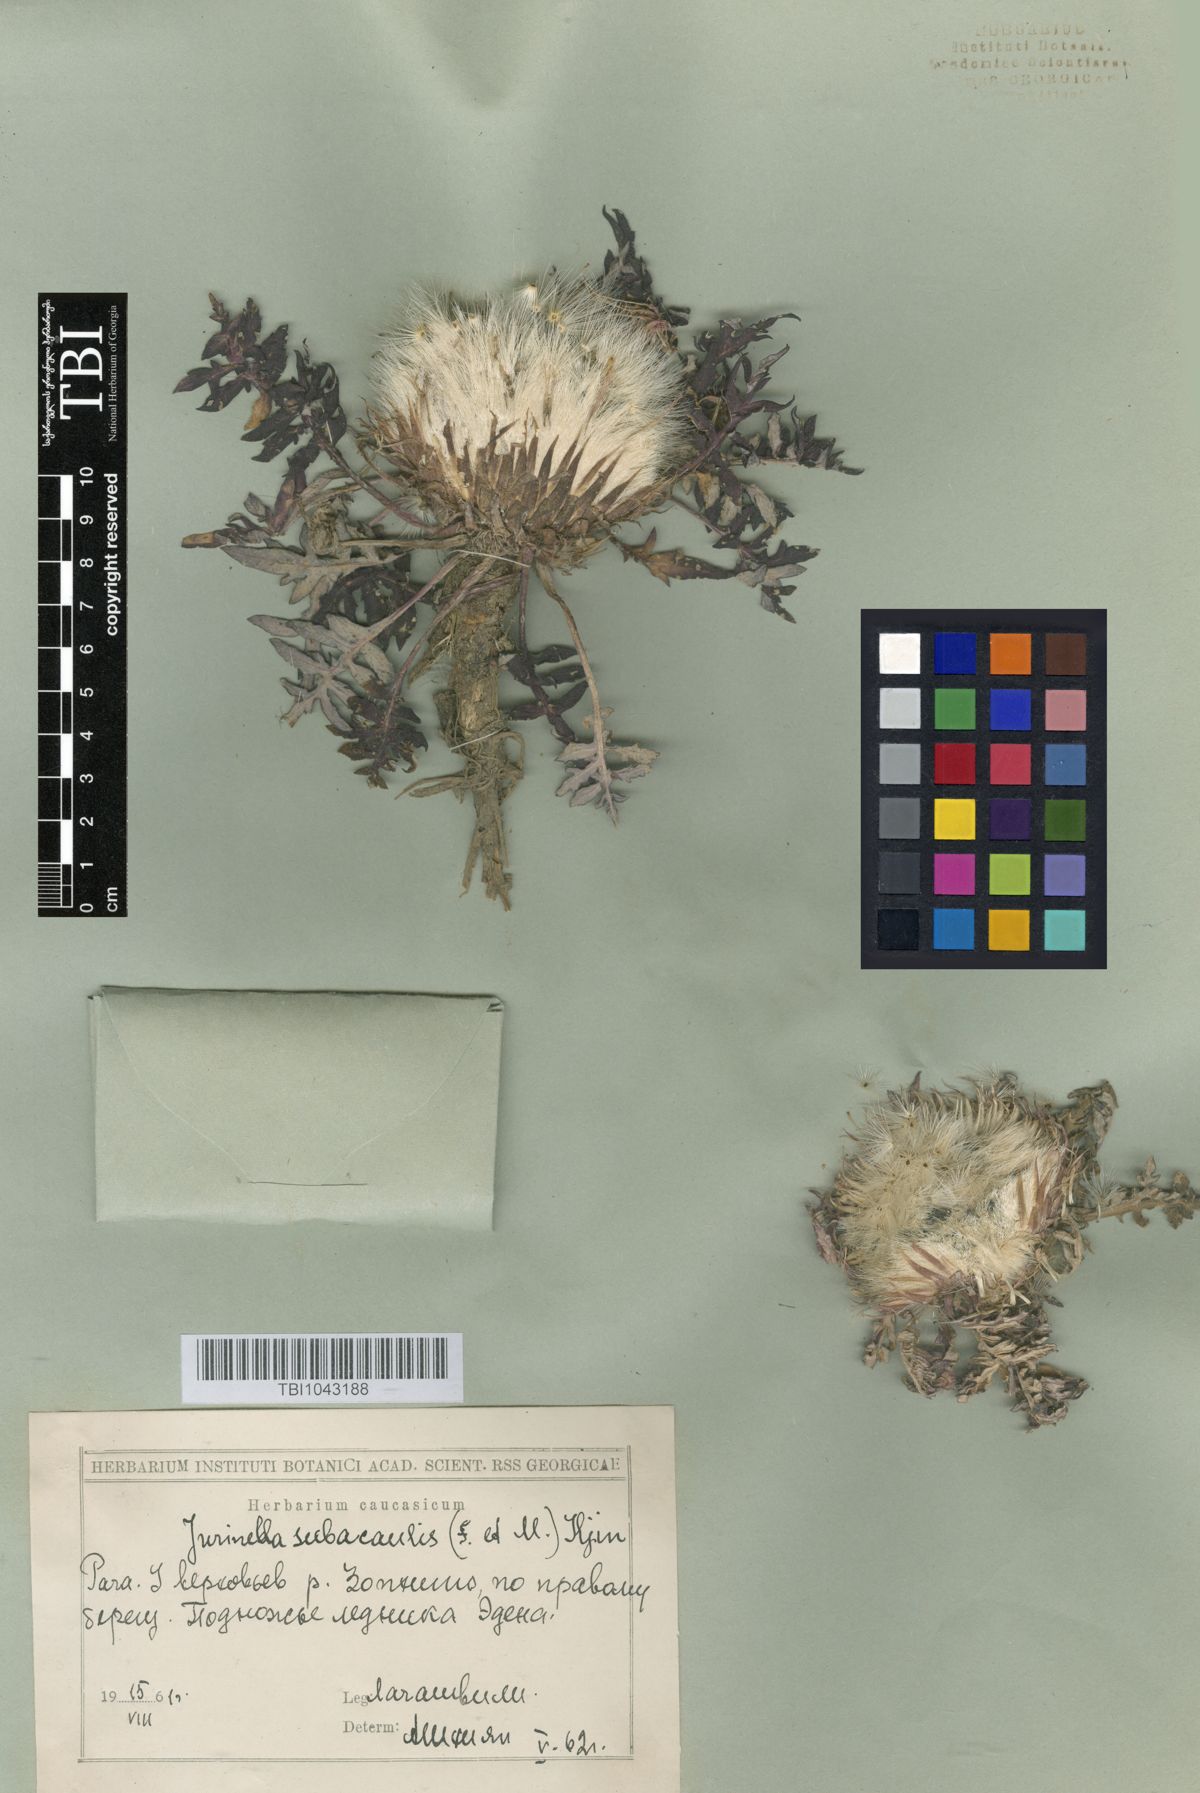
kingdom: Plantae
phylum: Tracheophyta
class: Magnoliopsida
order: Asterales
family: Asteraceae
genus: Jurinea
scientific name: Jurinea moschus
